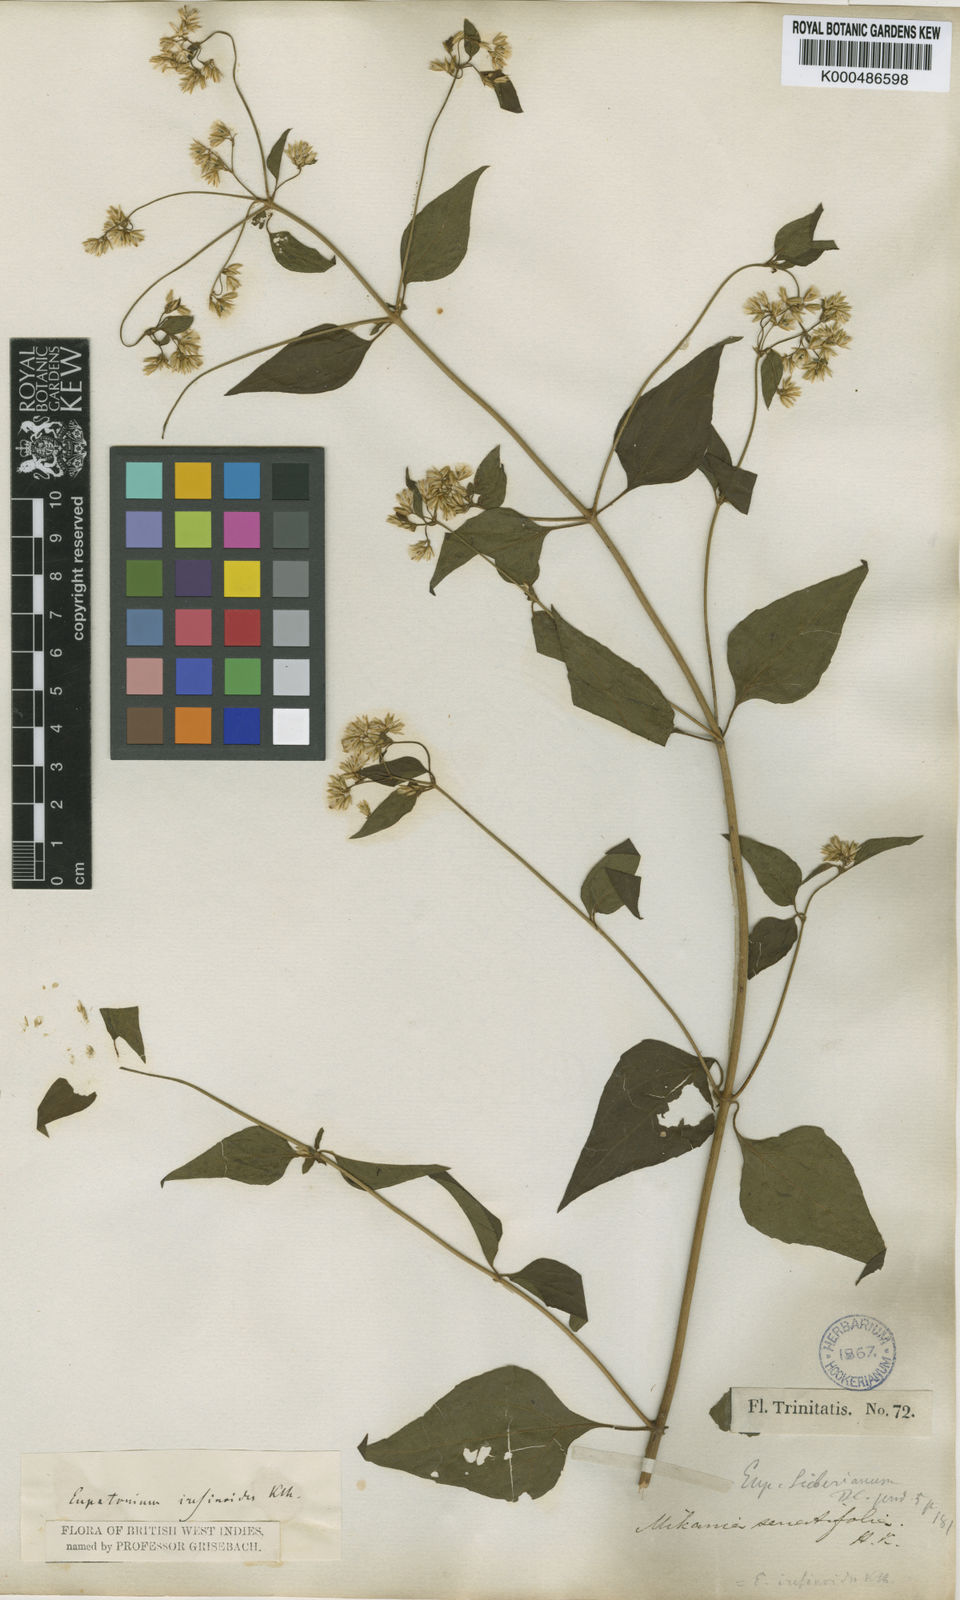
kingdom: Plantae
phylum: Tracheophyta
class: Magnoliopsida
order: Asterales
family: Asteraceae
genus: Condylidium
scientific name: Condylidium iresinoides
